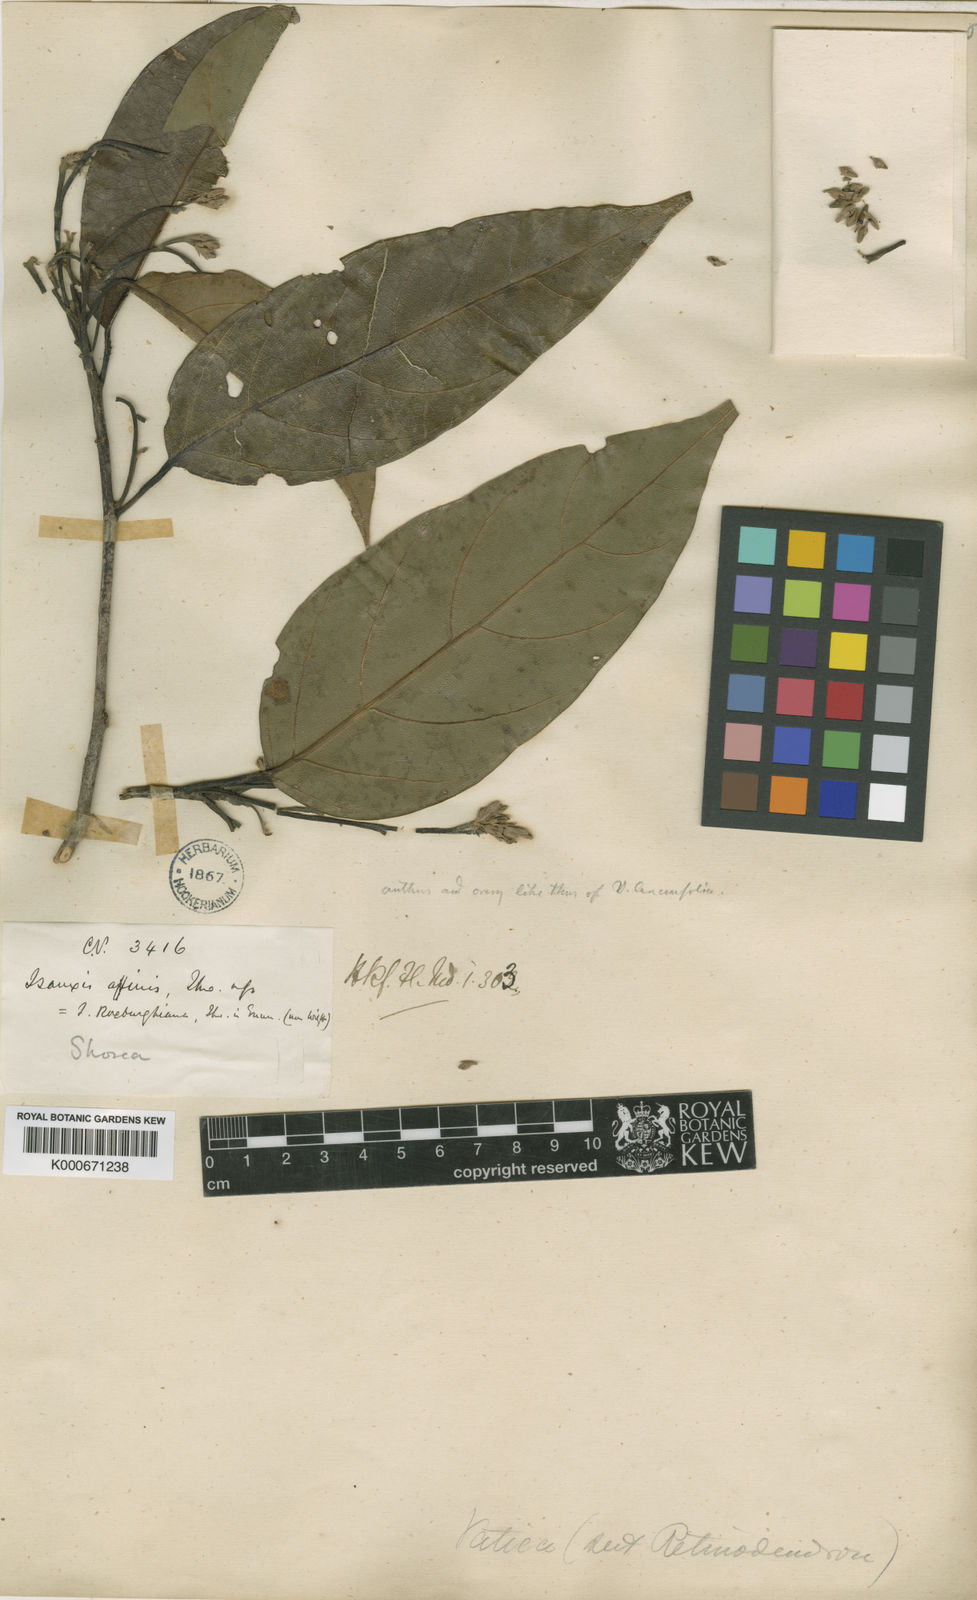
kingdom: Plantae
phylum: Tracheophyta
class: Magnoliopsida
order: Malvales
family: Dipterocarpaceae
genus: Vatica
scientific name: Vatica affinis
